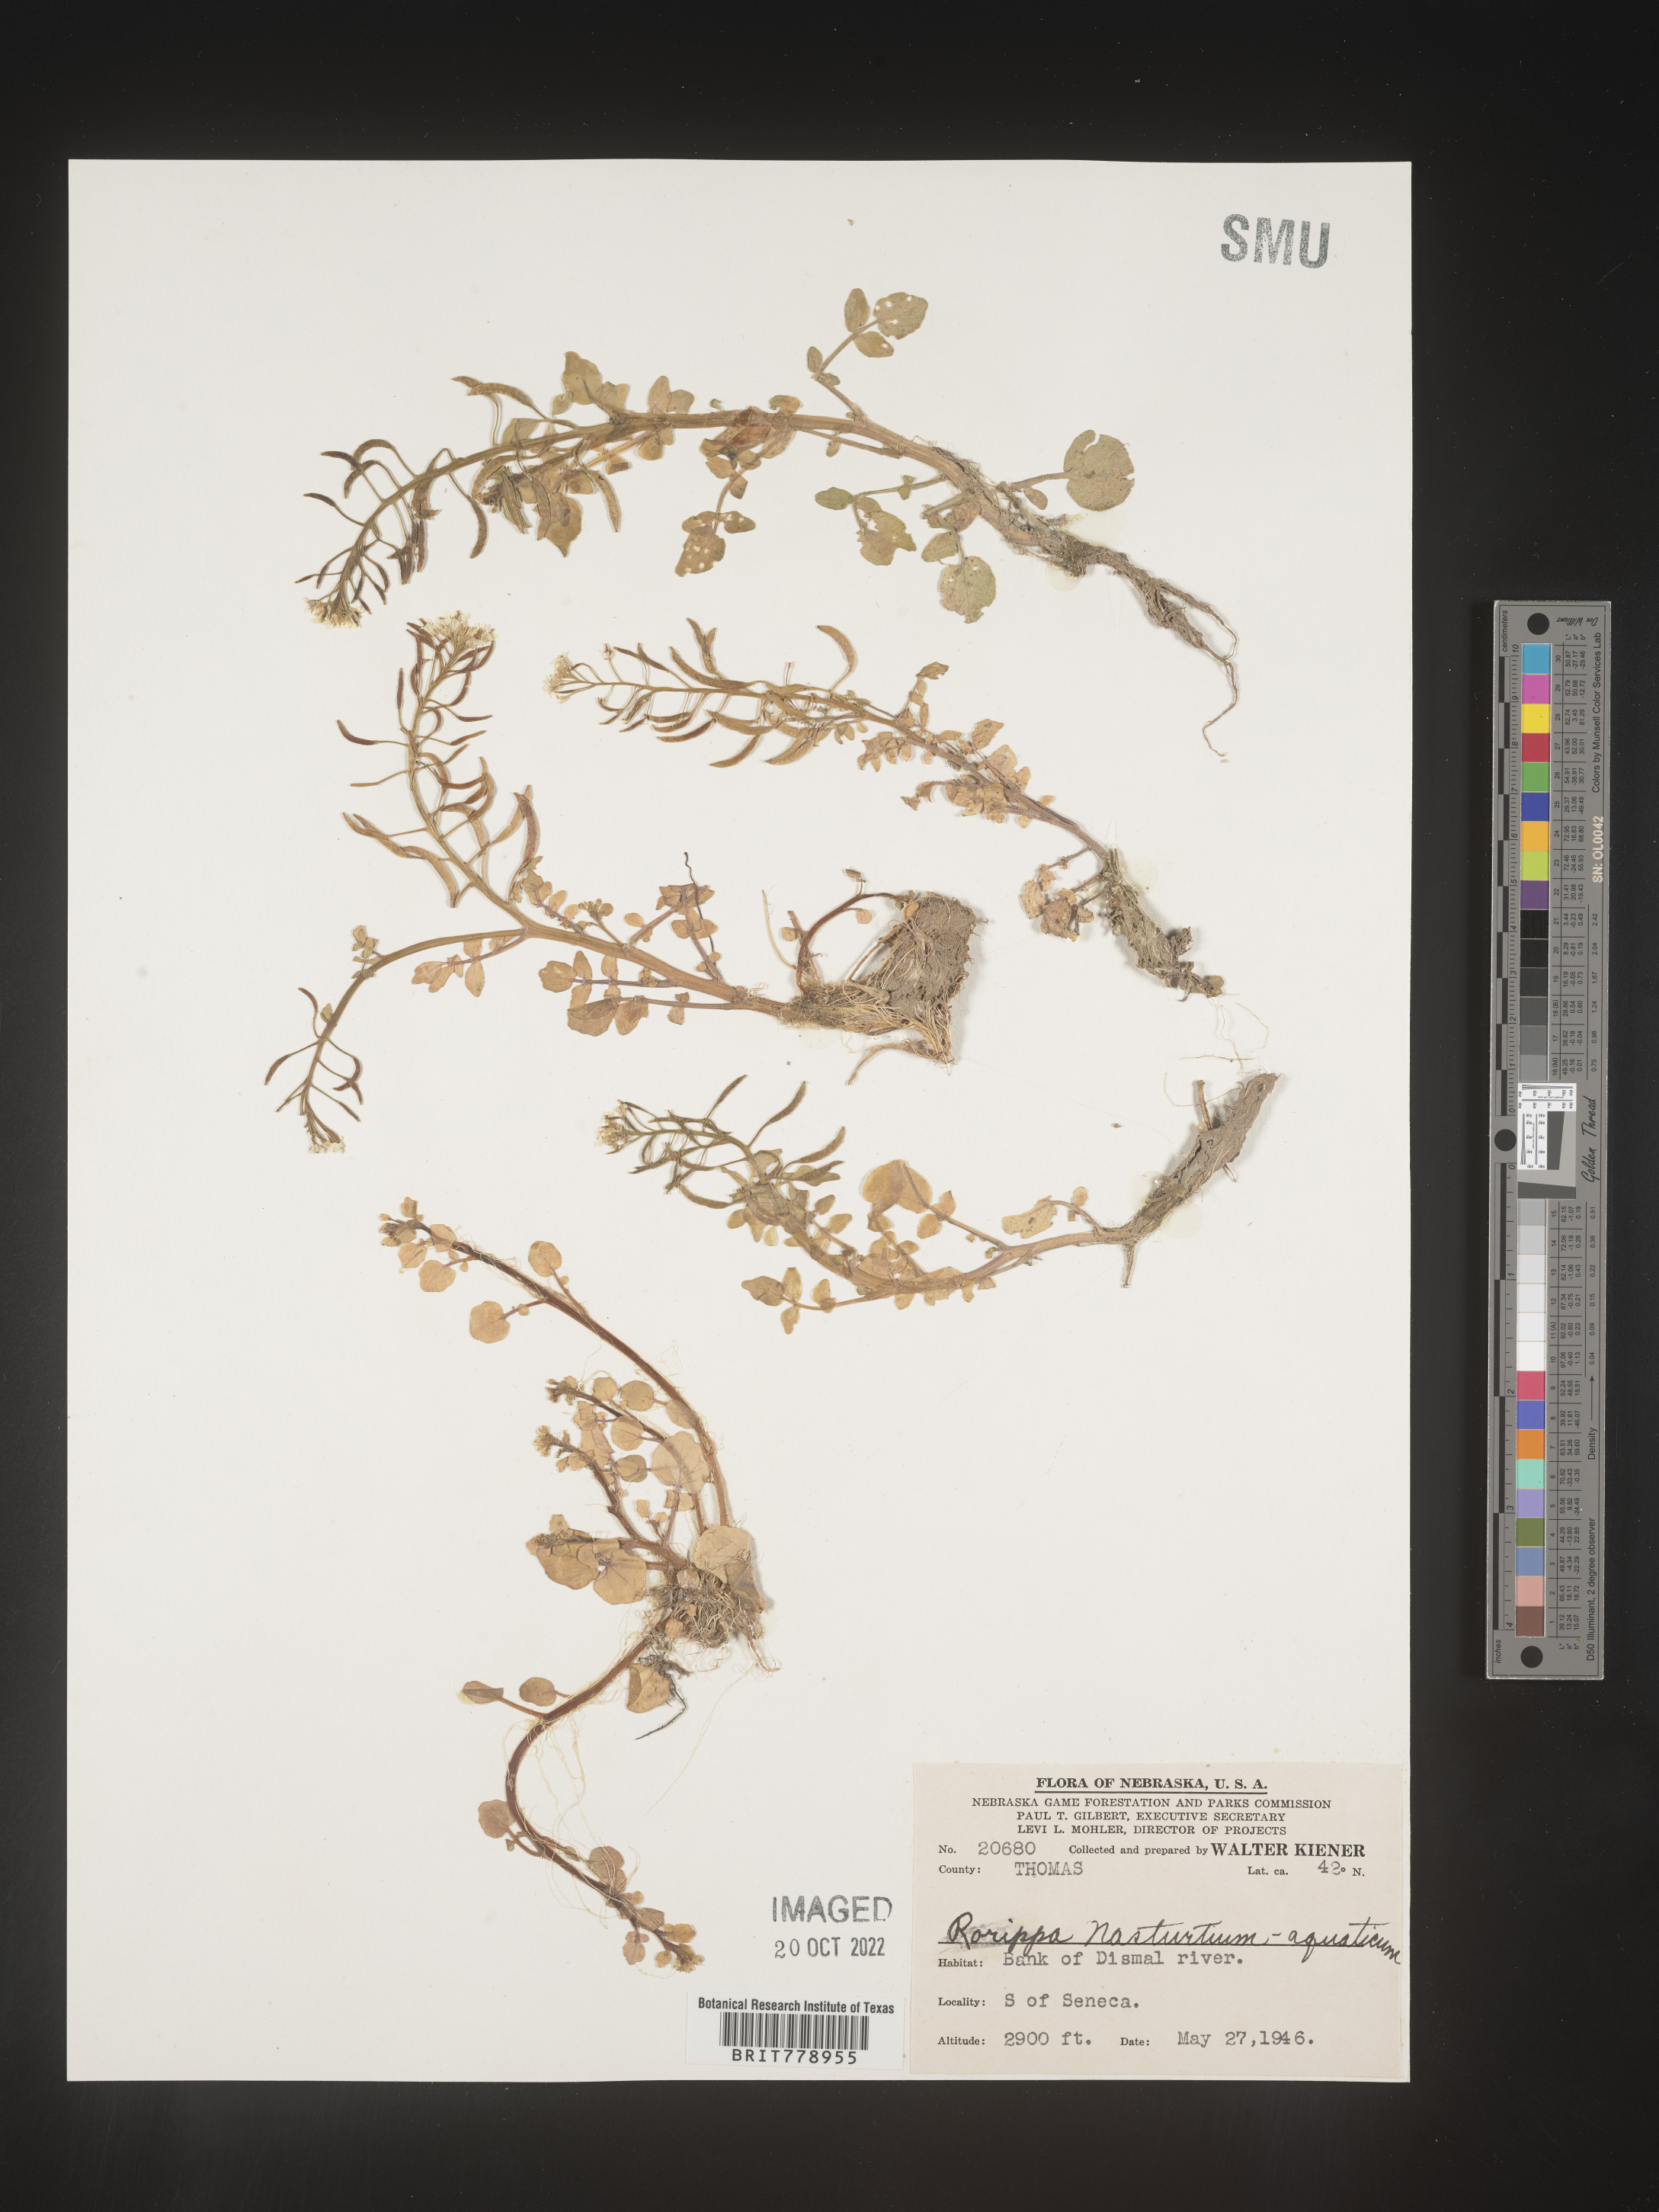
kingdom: Plantae
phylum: Tracheophyta
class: Magnoliopsida
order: Brassicales
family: Brassicaceae
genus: Nasturtium
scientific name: Nasturtium officinale
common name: Watercress
